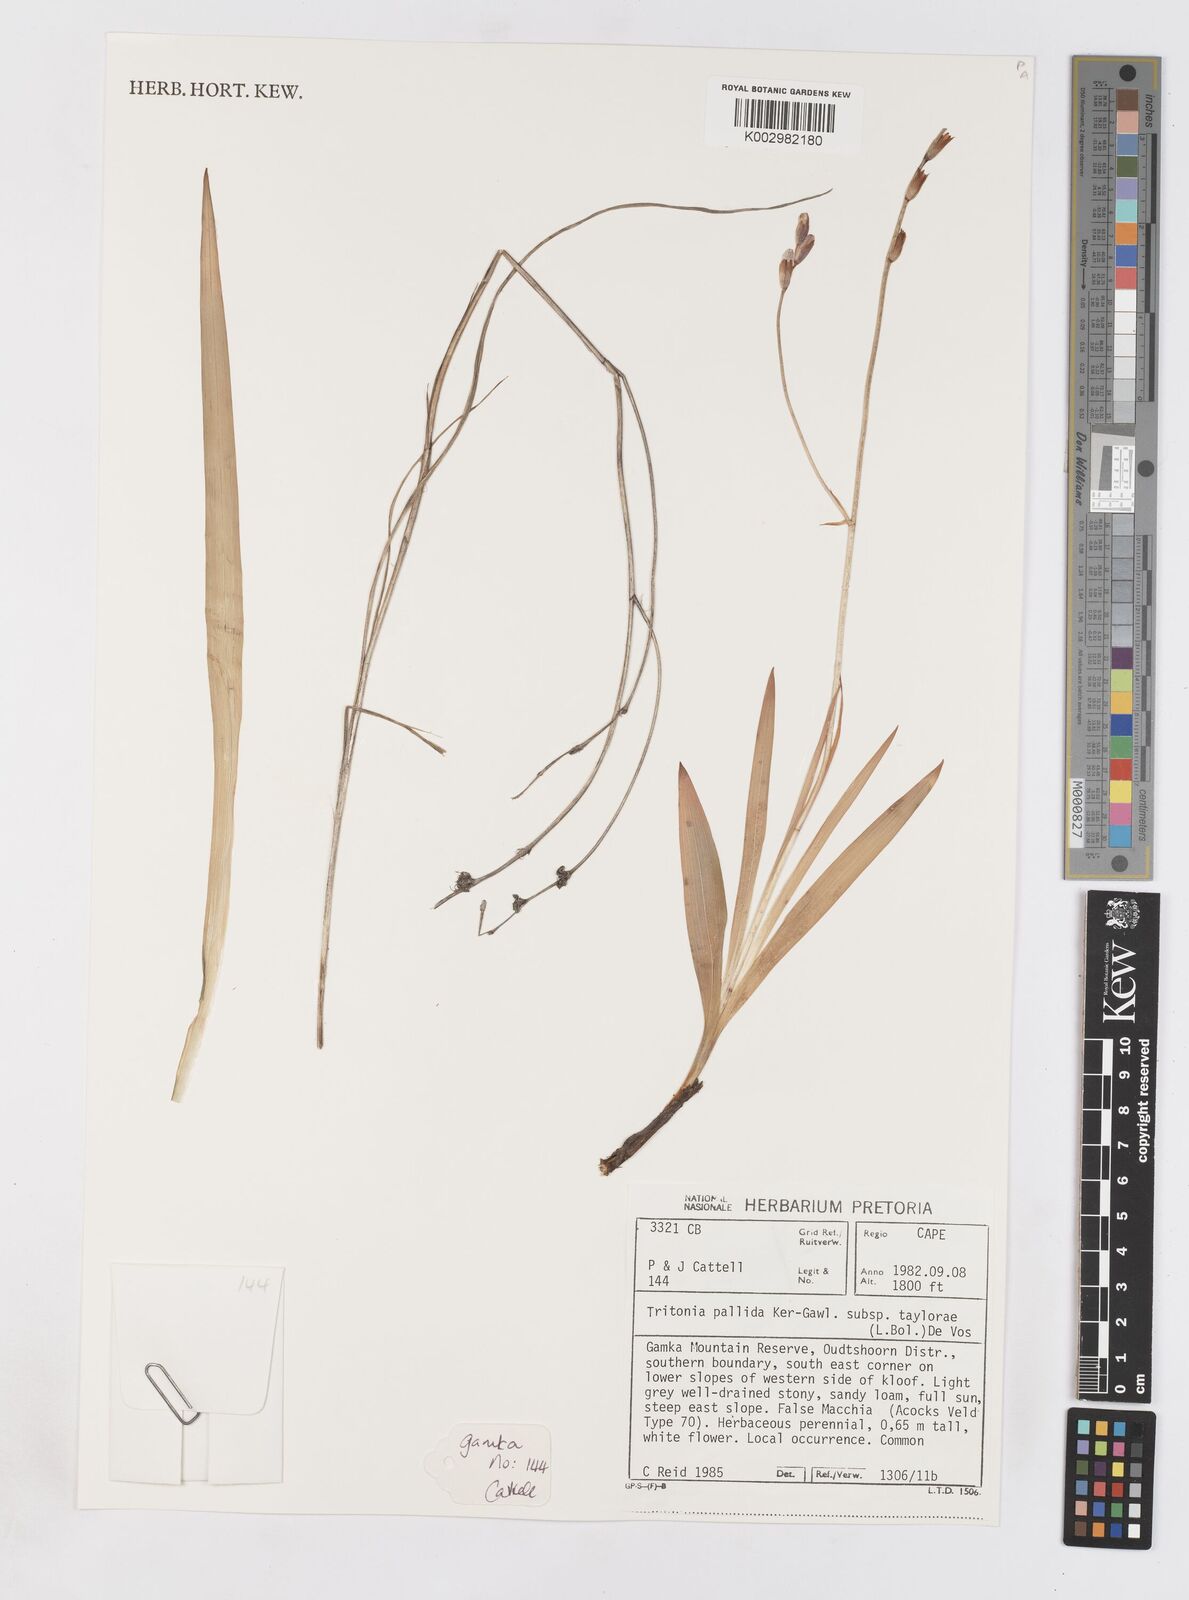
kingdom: Plantae
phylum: Tracheophyta
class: Liliopsida
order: Asparagales
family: Iridaceae
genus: Tritonia
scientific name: Tritonia pallida
